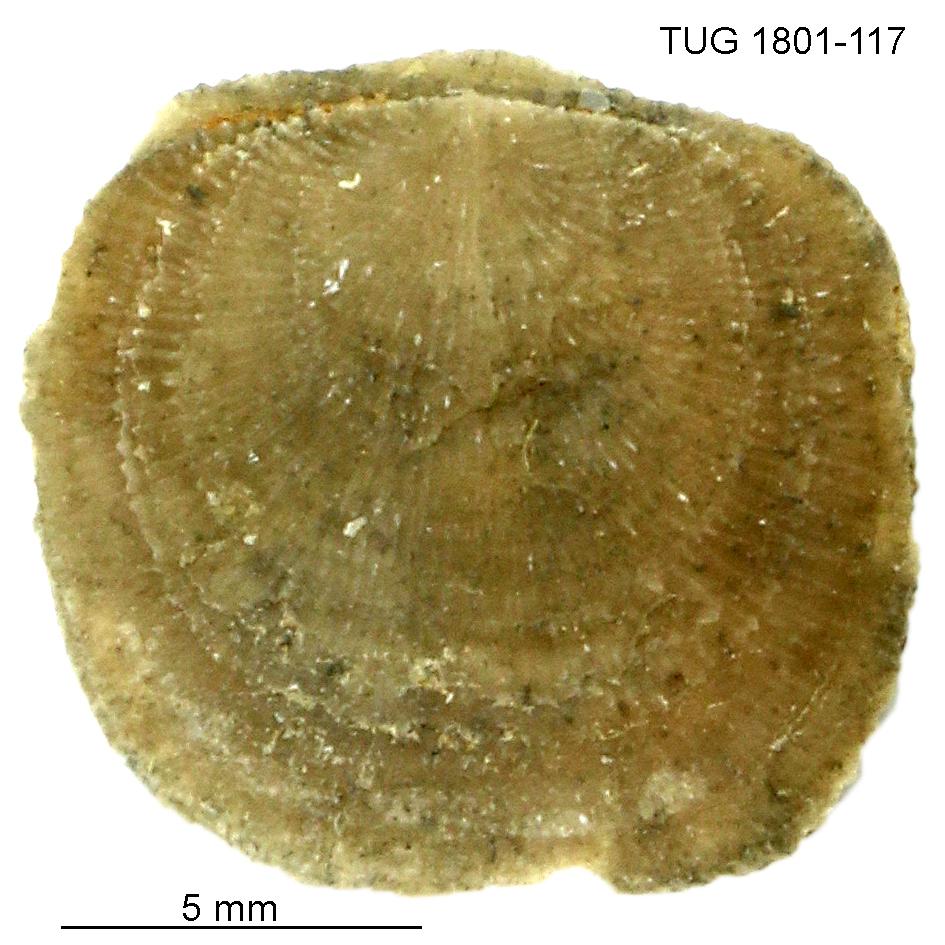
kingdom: Animalia
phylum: Brachiopoda
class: Craniata
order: Craniida
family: Craniidae
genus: Philhedra
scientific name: Philhedra
